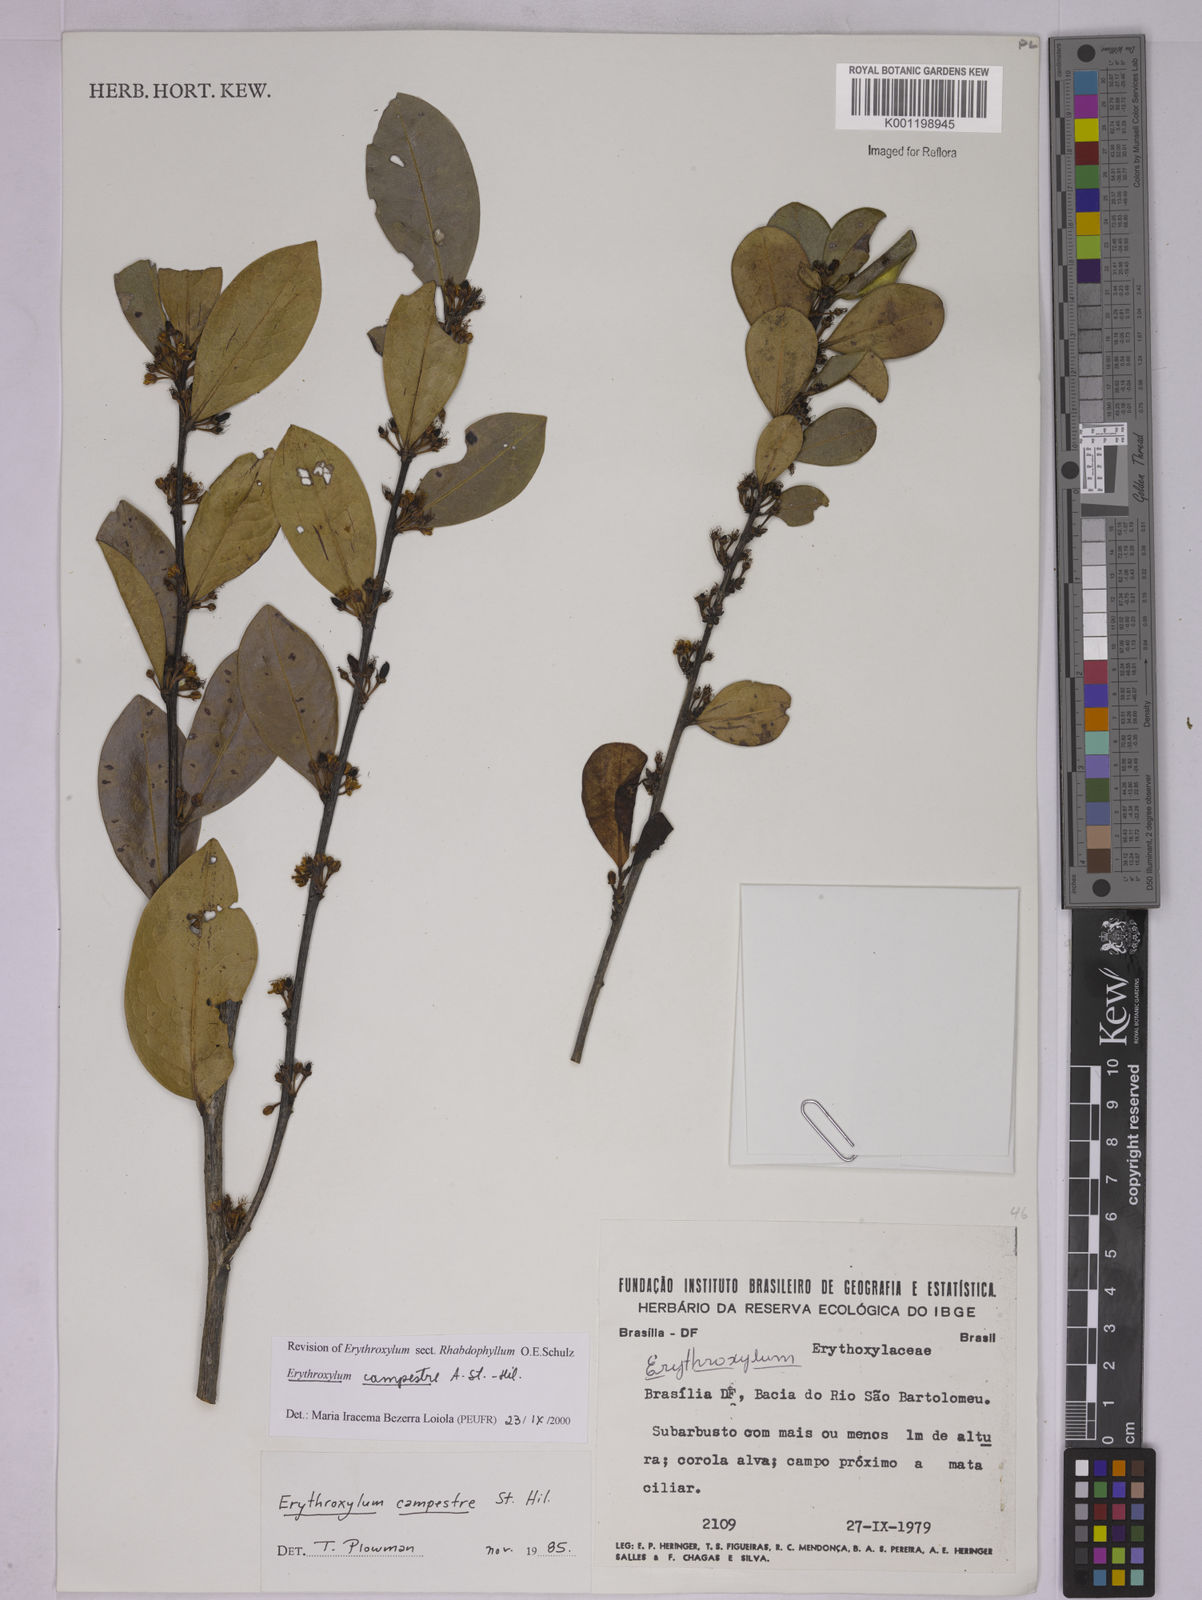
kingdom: Plantae
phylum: Tracheophyta
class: Magnoliopsida
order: Malpighiales
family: Erythroxylaceae
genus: Erythroxylum
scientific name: Erythroxylum campestre
